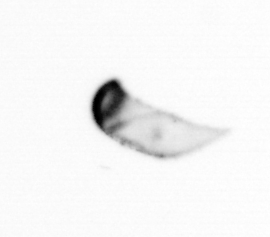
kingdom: Chromista
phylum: Ochrophyta
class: Bacillariophyceae
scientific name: Bacillariophyceae
